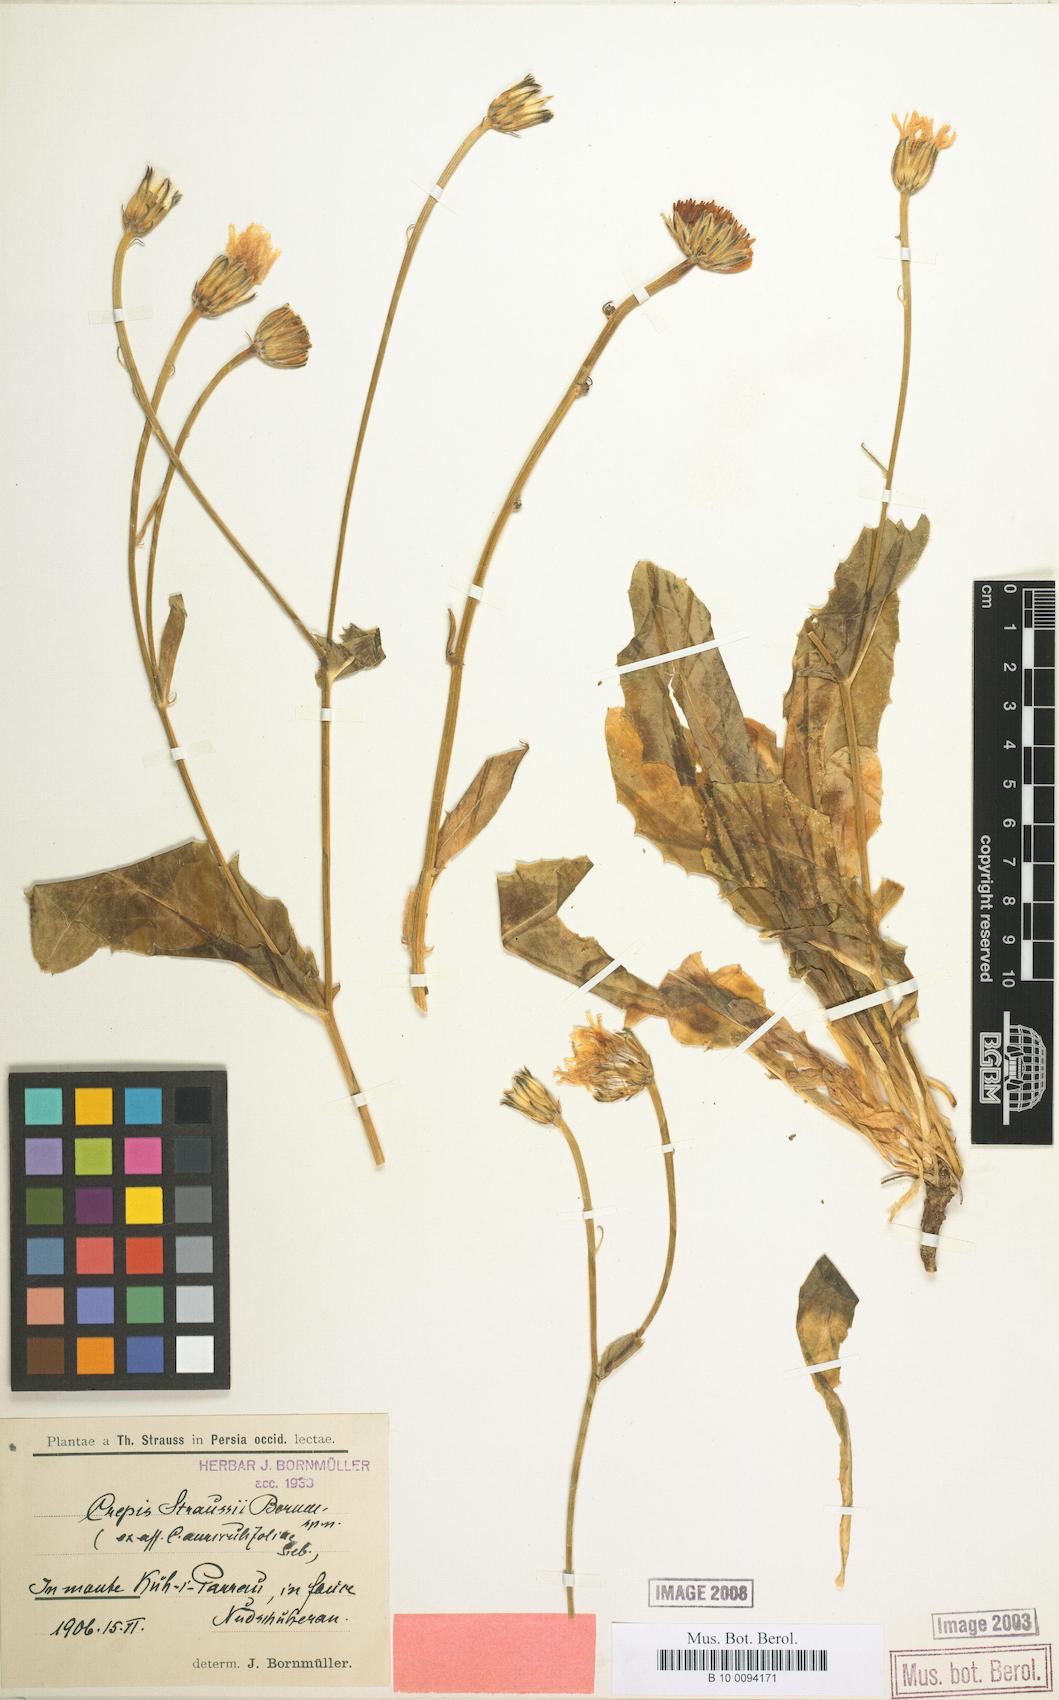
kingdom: Plantae
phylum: Tracheophyta
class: Magnoliopsida
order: Asterales
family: Asteraceae
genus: Crepis
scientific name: Crepis straussii
